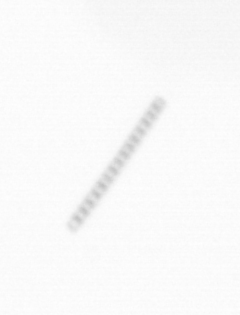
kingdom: Chromista
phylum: Ochrophyta
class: Bacillariophyceae
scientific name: Bacillariophyceae
